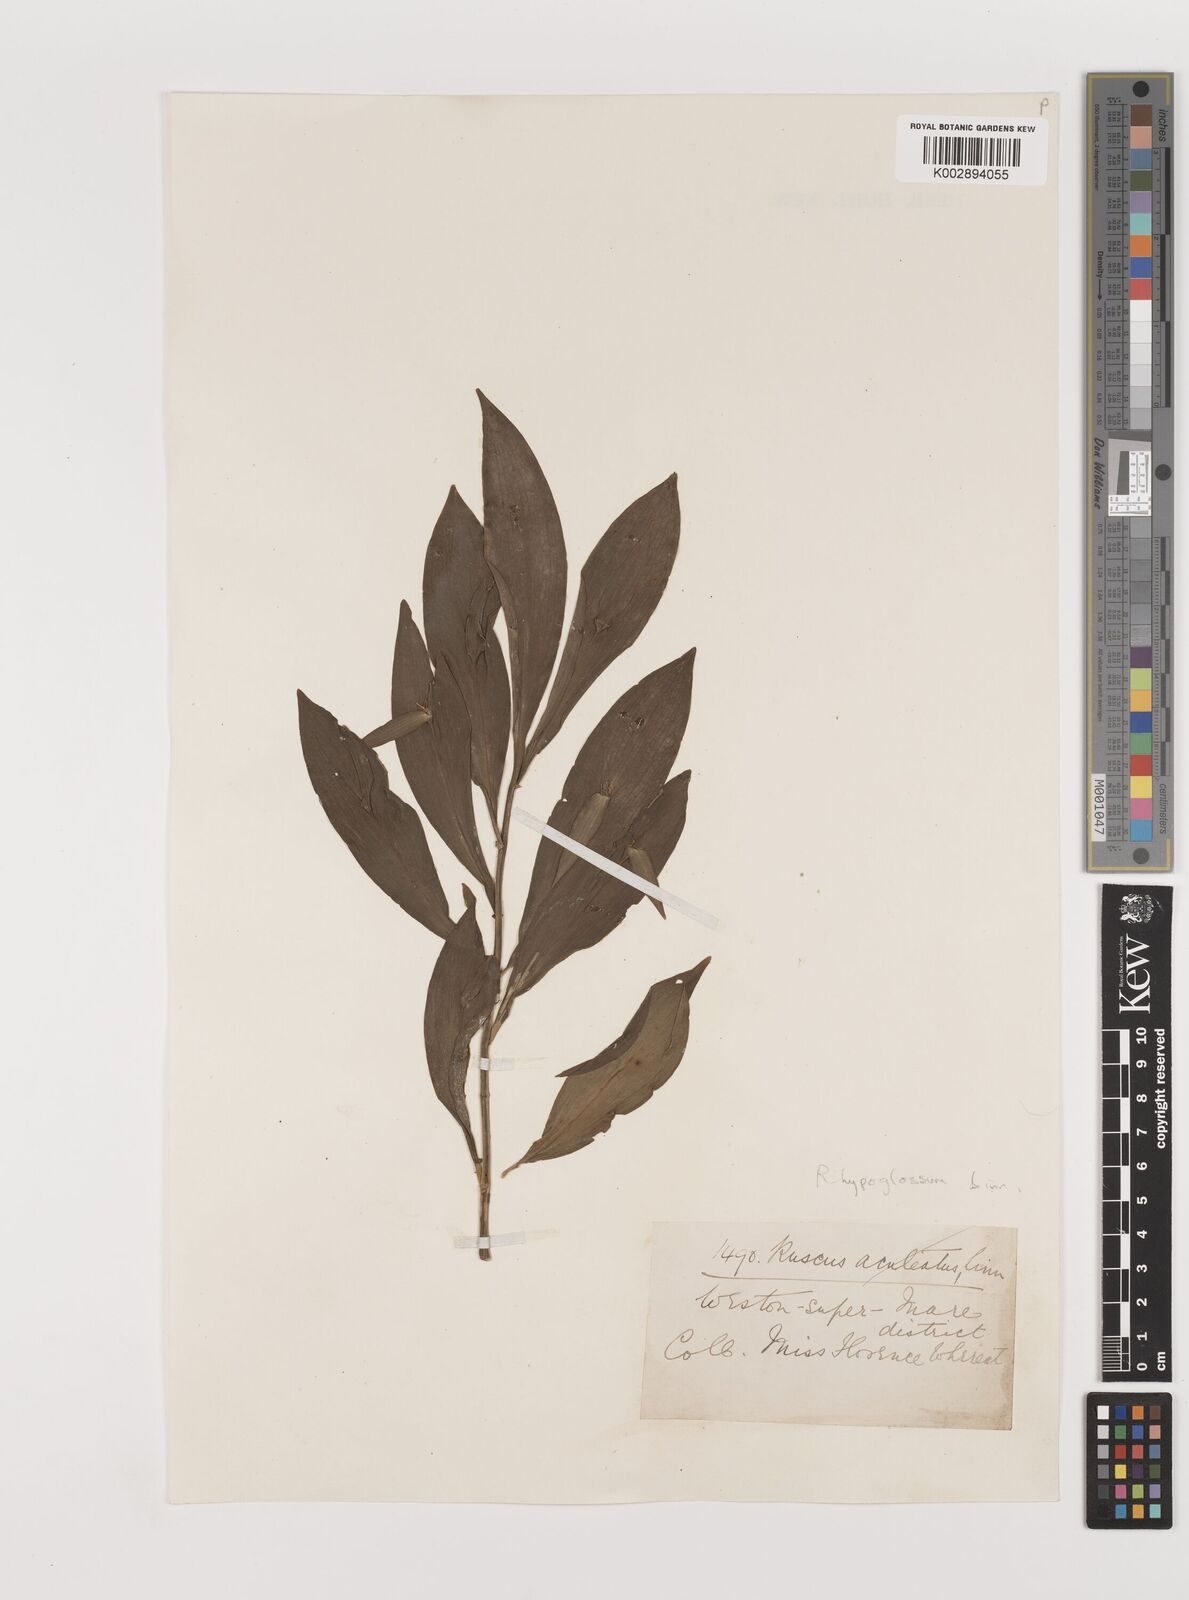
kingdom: Plantae
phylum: Tracheophyta
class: Liliopsida
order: Asparagales
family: Asparagaceae
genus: Ruscus
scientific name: Ruscus hypoglossum
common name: Spineless butcher's-broom
